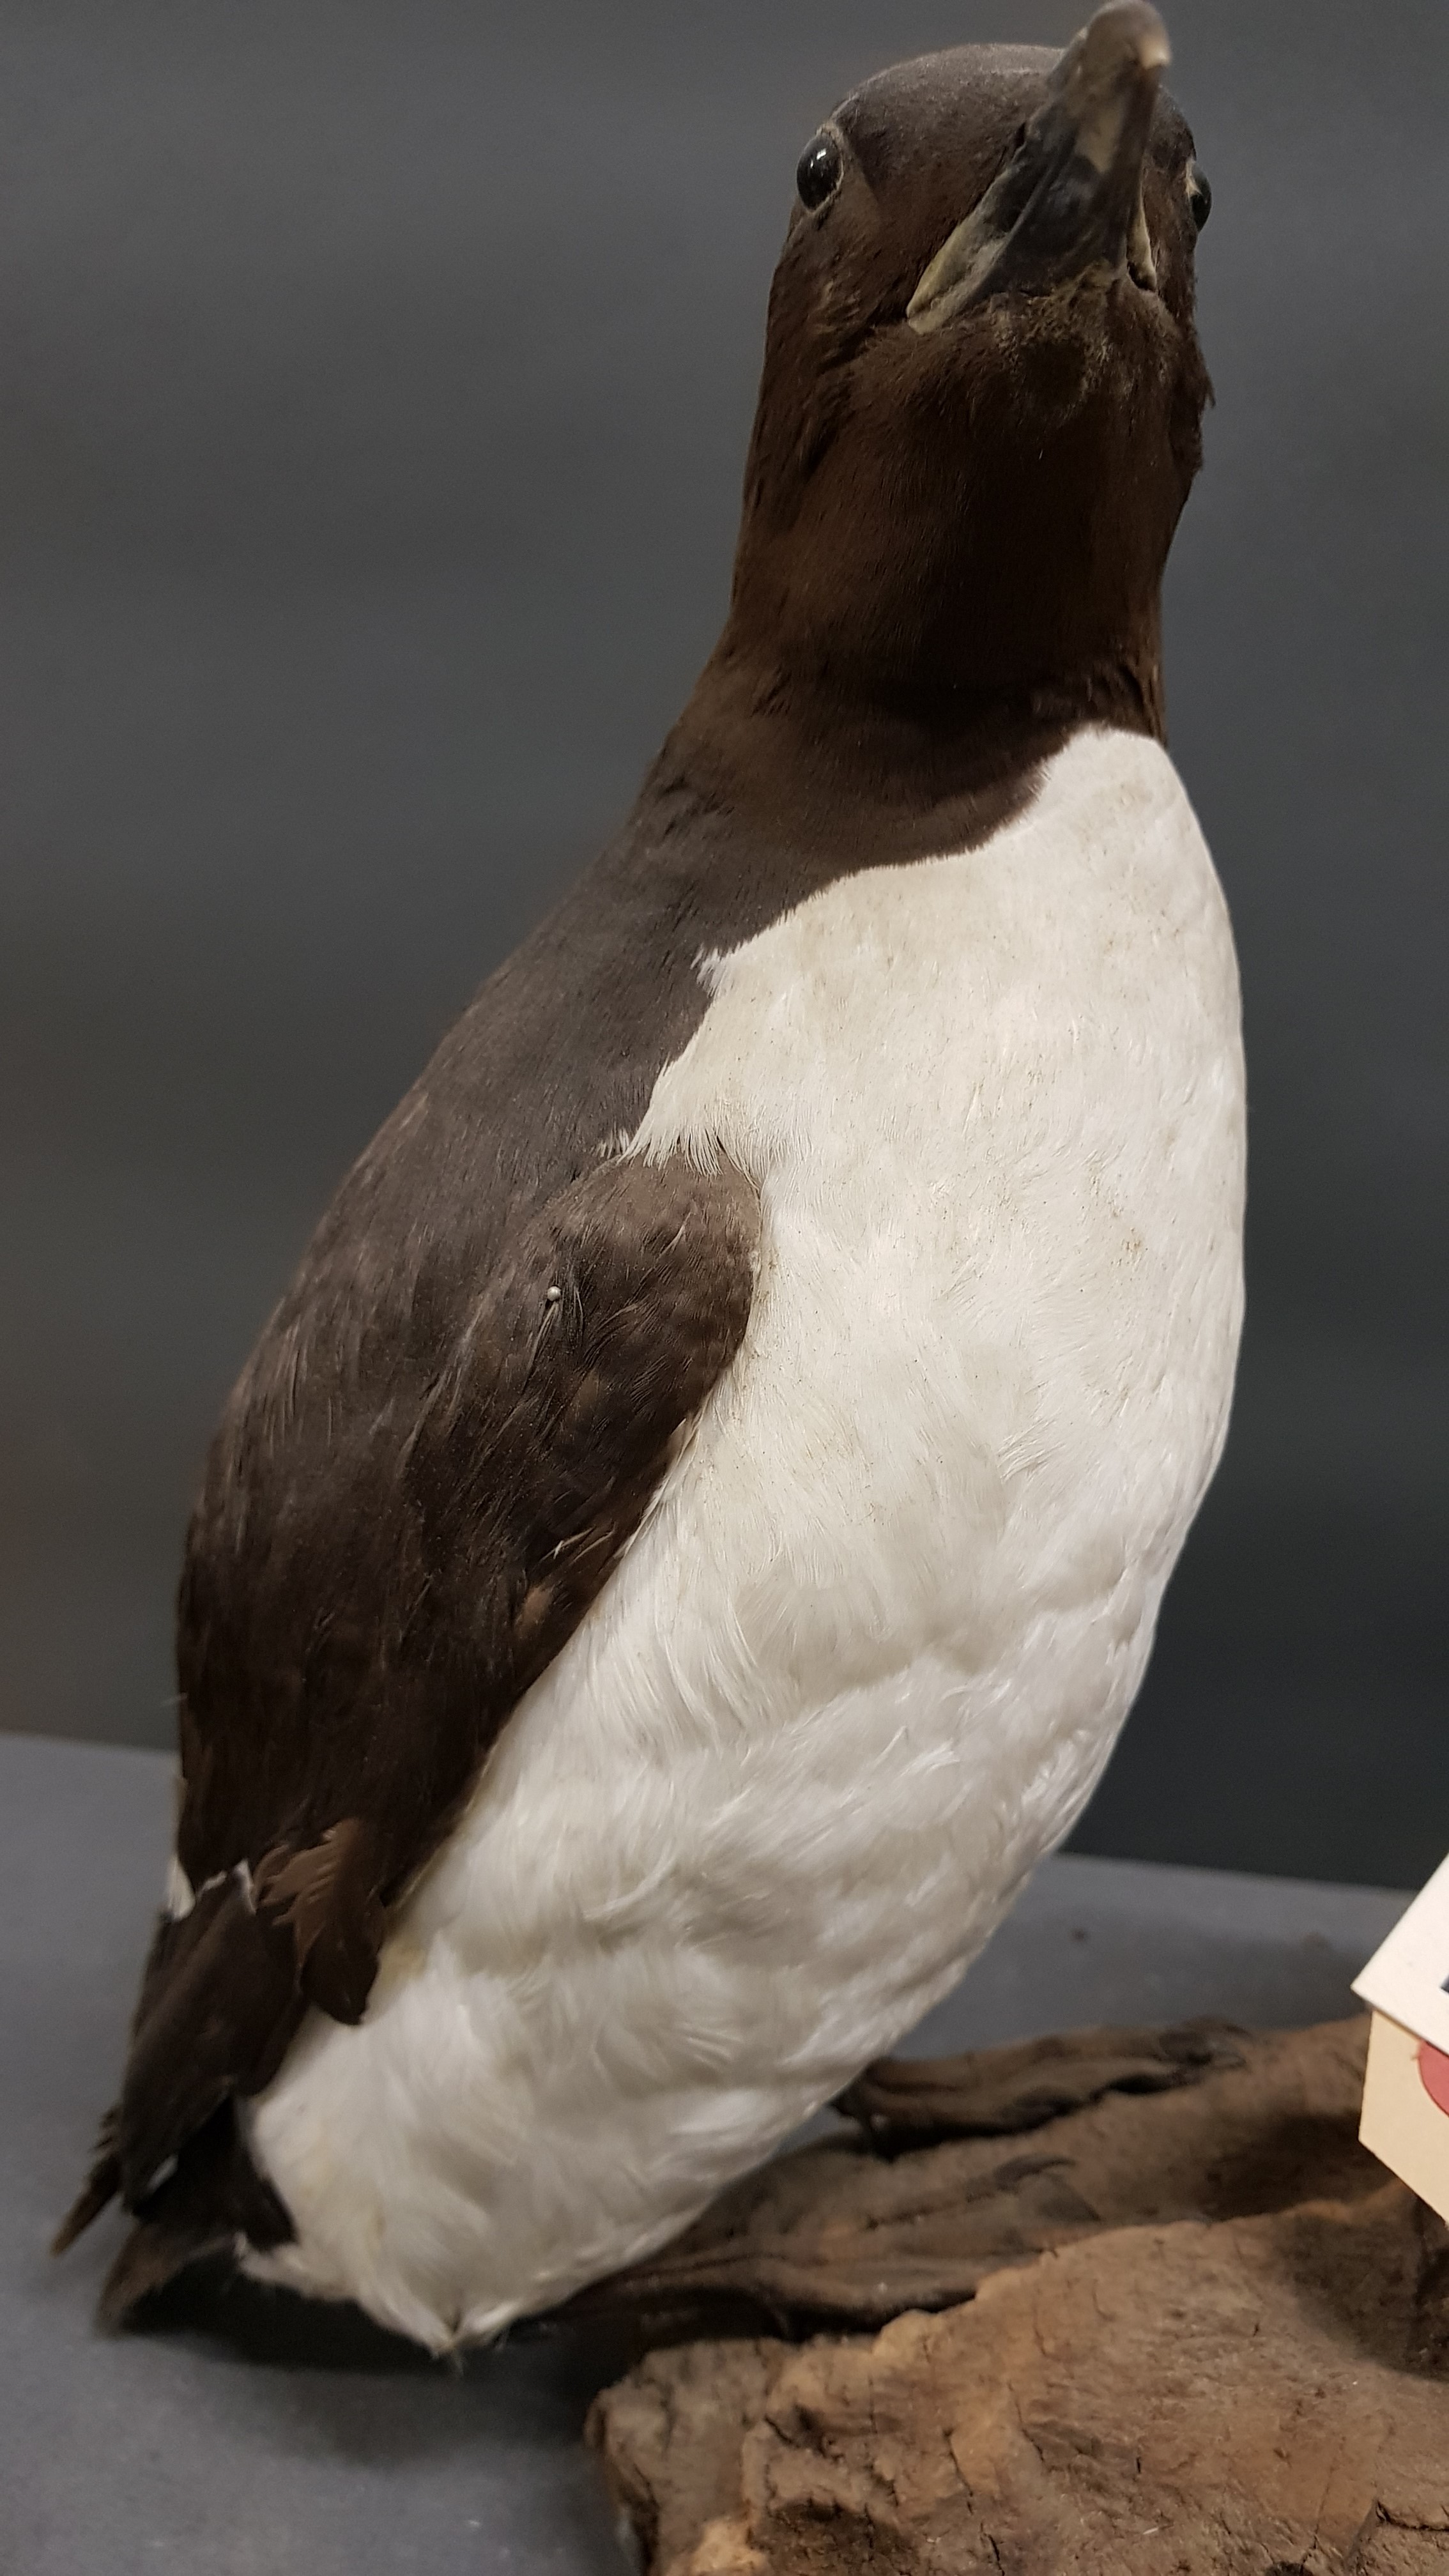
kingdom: Animalia
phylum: Chordata
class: Aves
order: Charadriiformes
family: Alcidae
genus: Uria
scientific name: Uria lomvia
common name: Thick-billed murre
